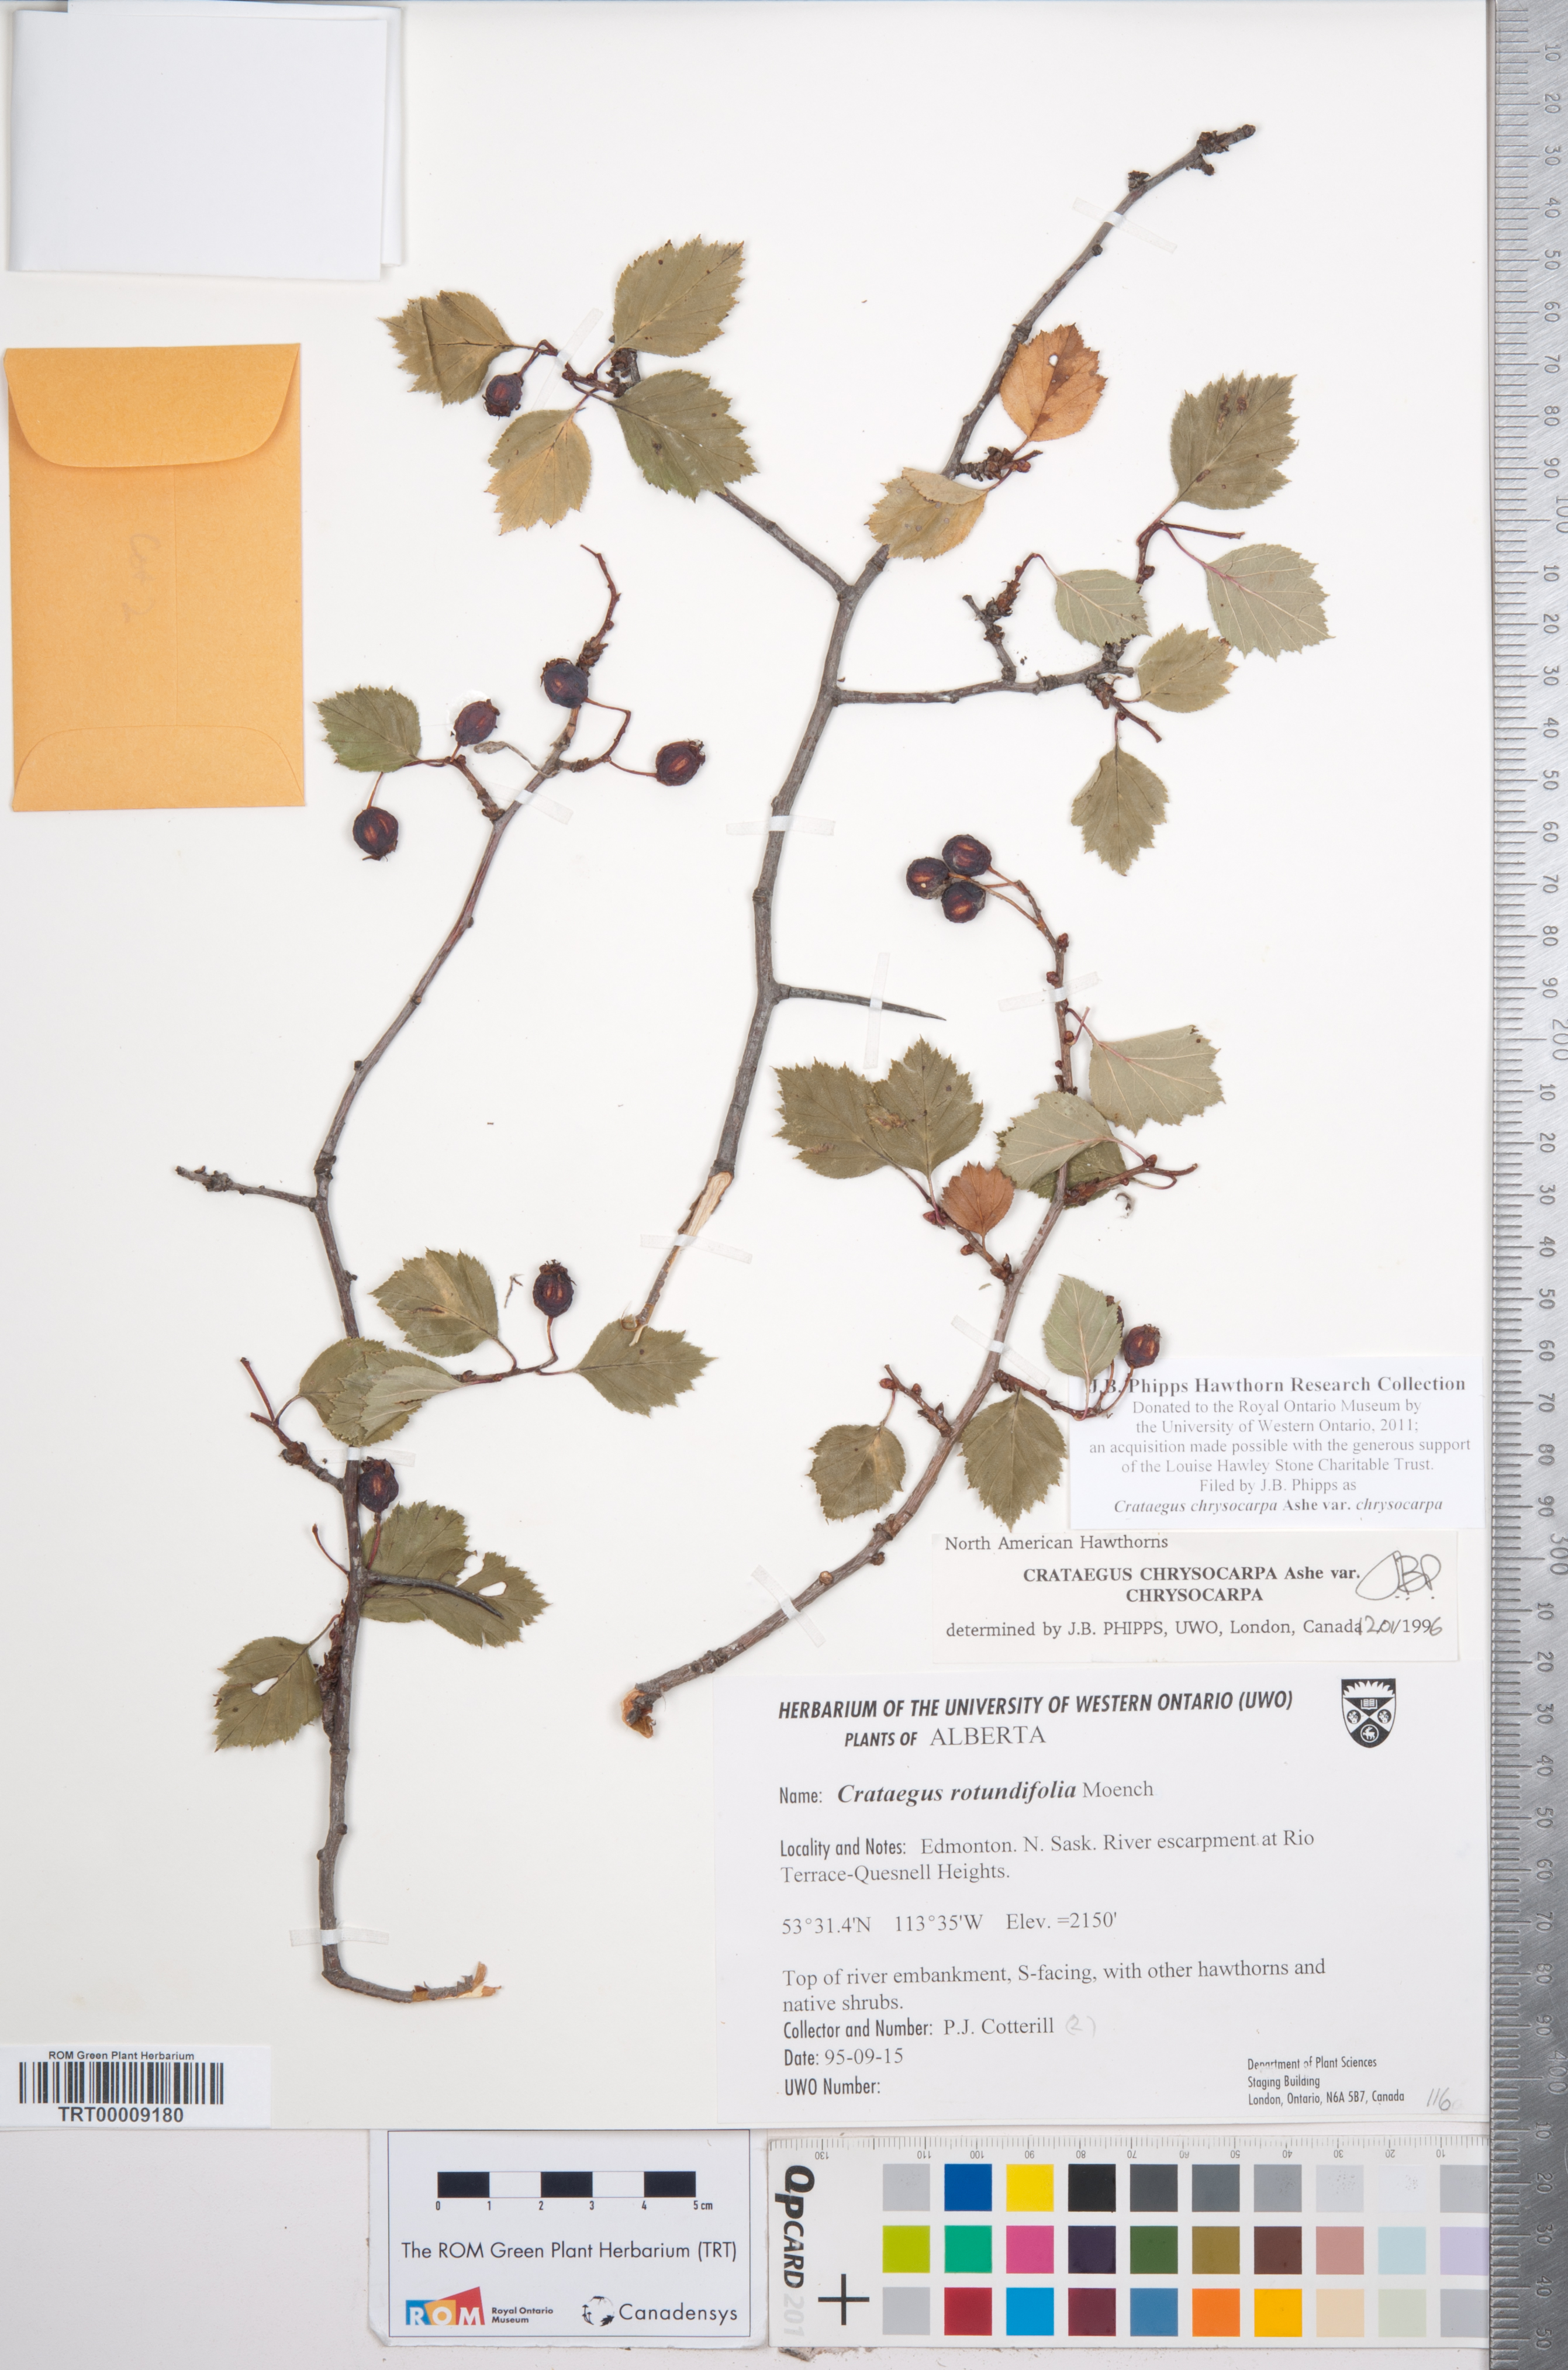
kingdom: Plantae
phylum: Tracheophyta
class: Magnoliopsida
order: Rosales
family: Rosaceae
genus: Crataegus
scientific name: Crataegus chrysocarpa
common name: Fire-berry hawthorn
